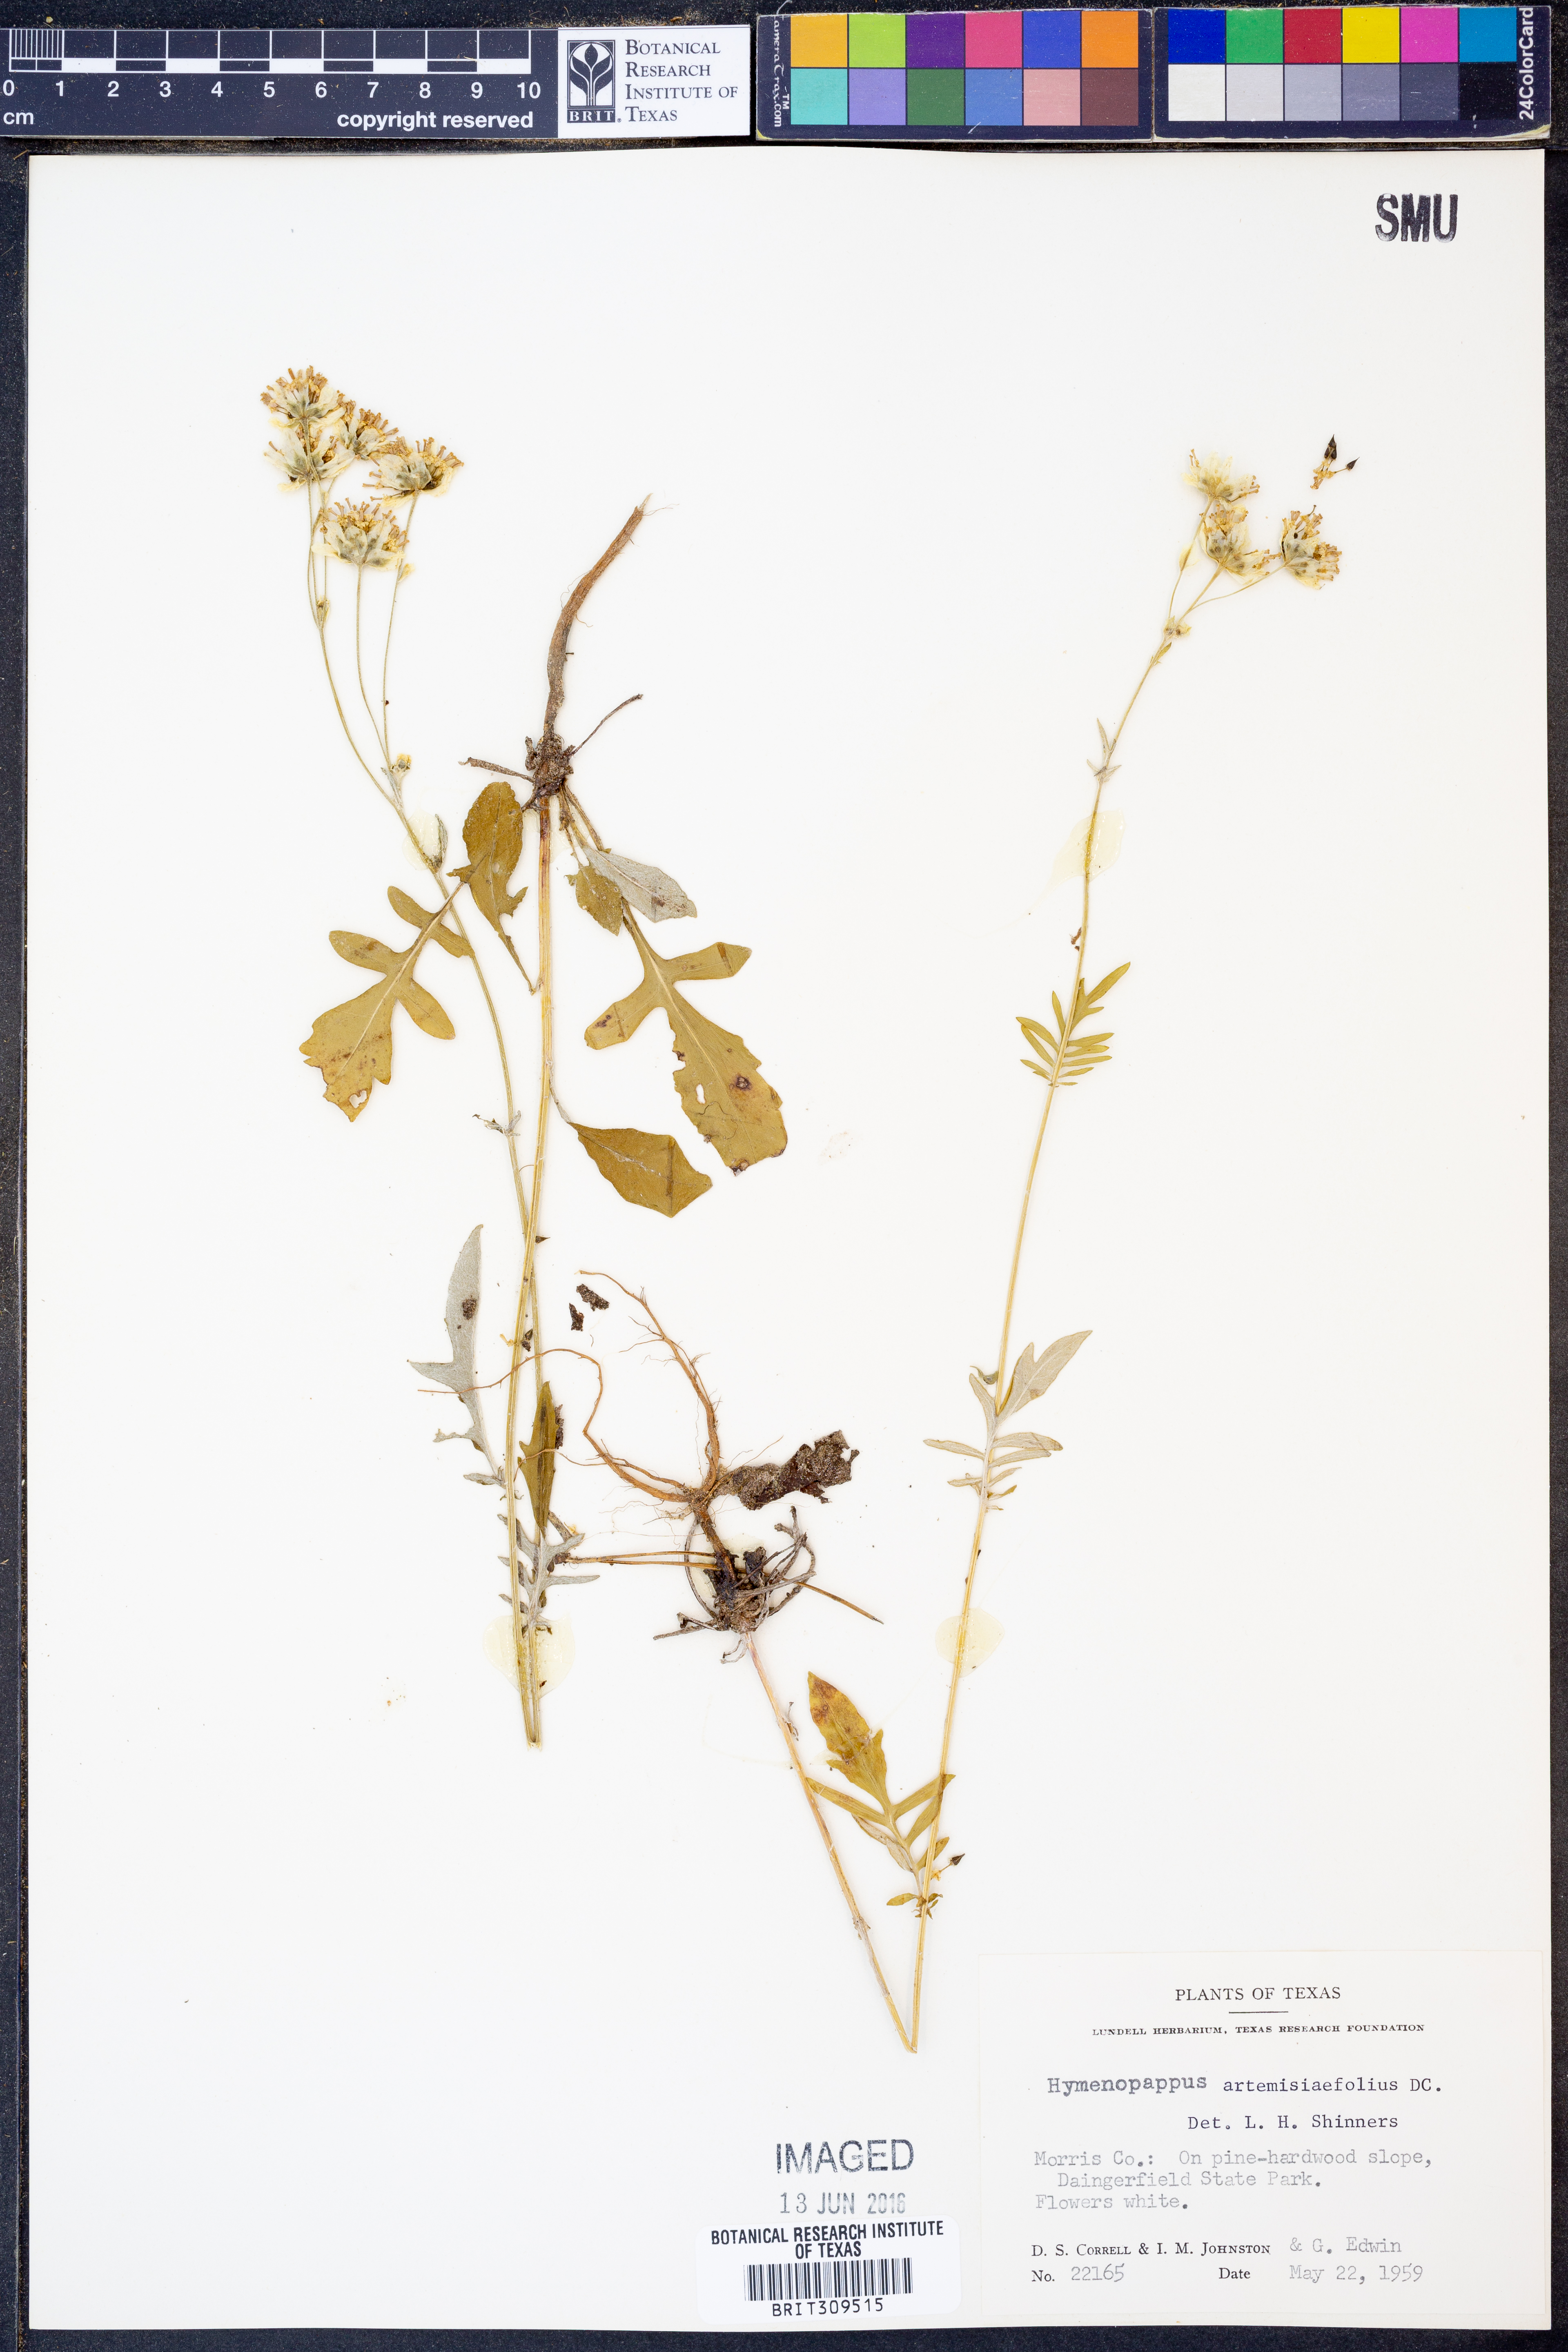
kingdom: Plantae
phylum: Tracheophyta
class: Magnoliopsida
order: Asterales
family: Asteraceae
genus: Hymenopappus
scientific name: Hymenopappus artemisiifolius
